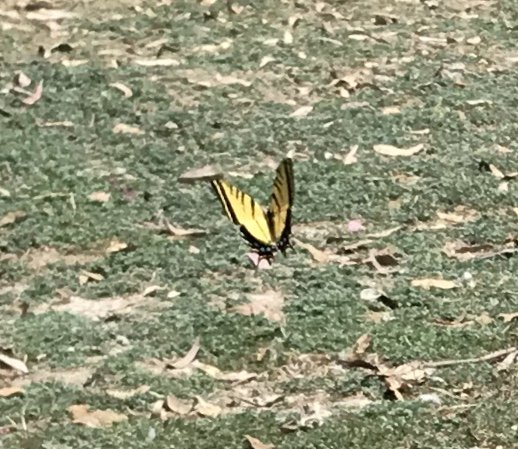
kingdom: Animalia
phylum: Arthropoda
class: Insecta
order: Lepidoptera
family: Papilionidae
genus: Papilio
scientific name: Papilio multicaudata
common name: Two-tailed Swallowtail
